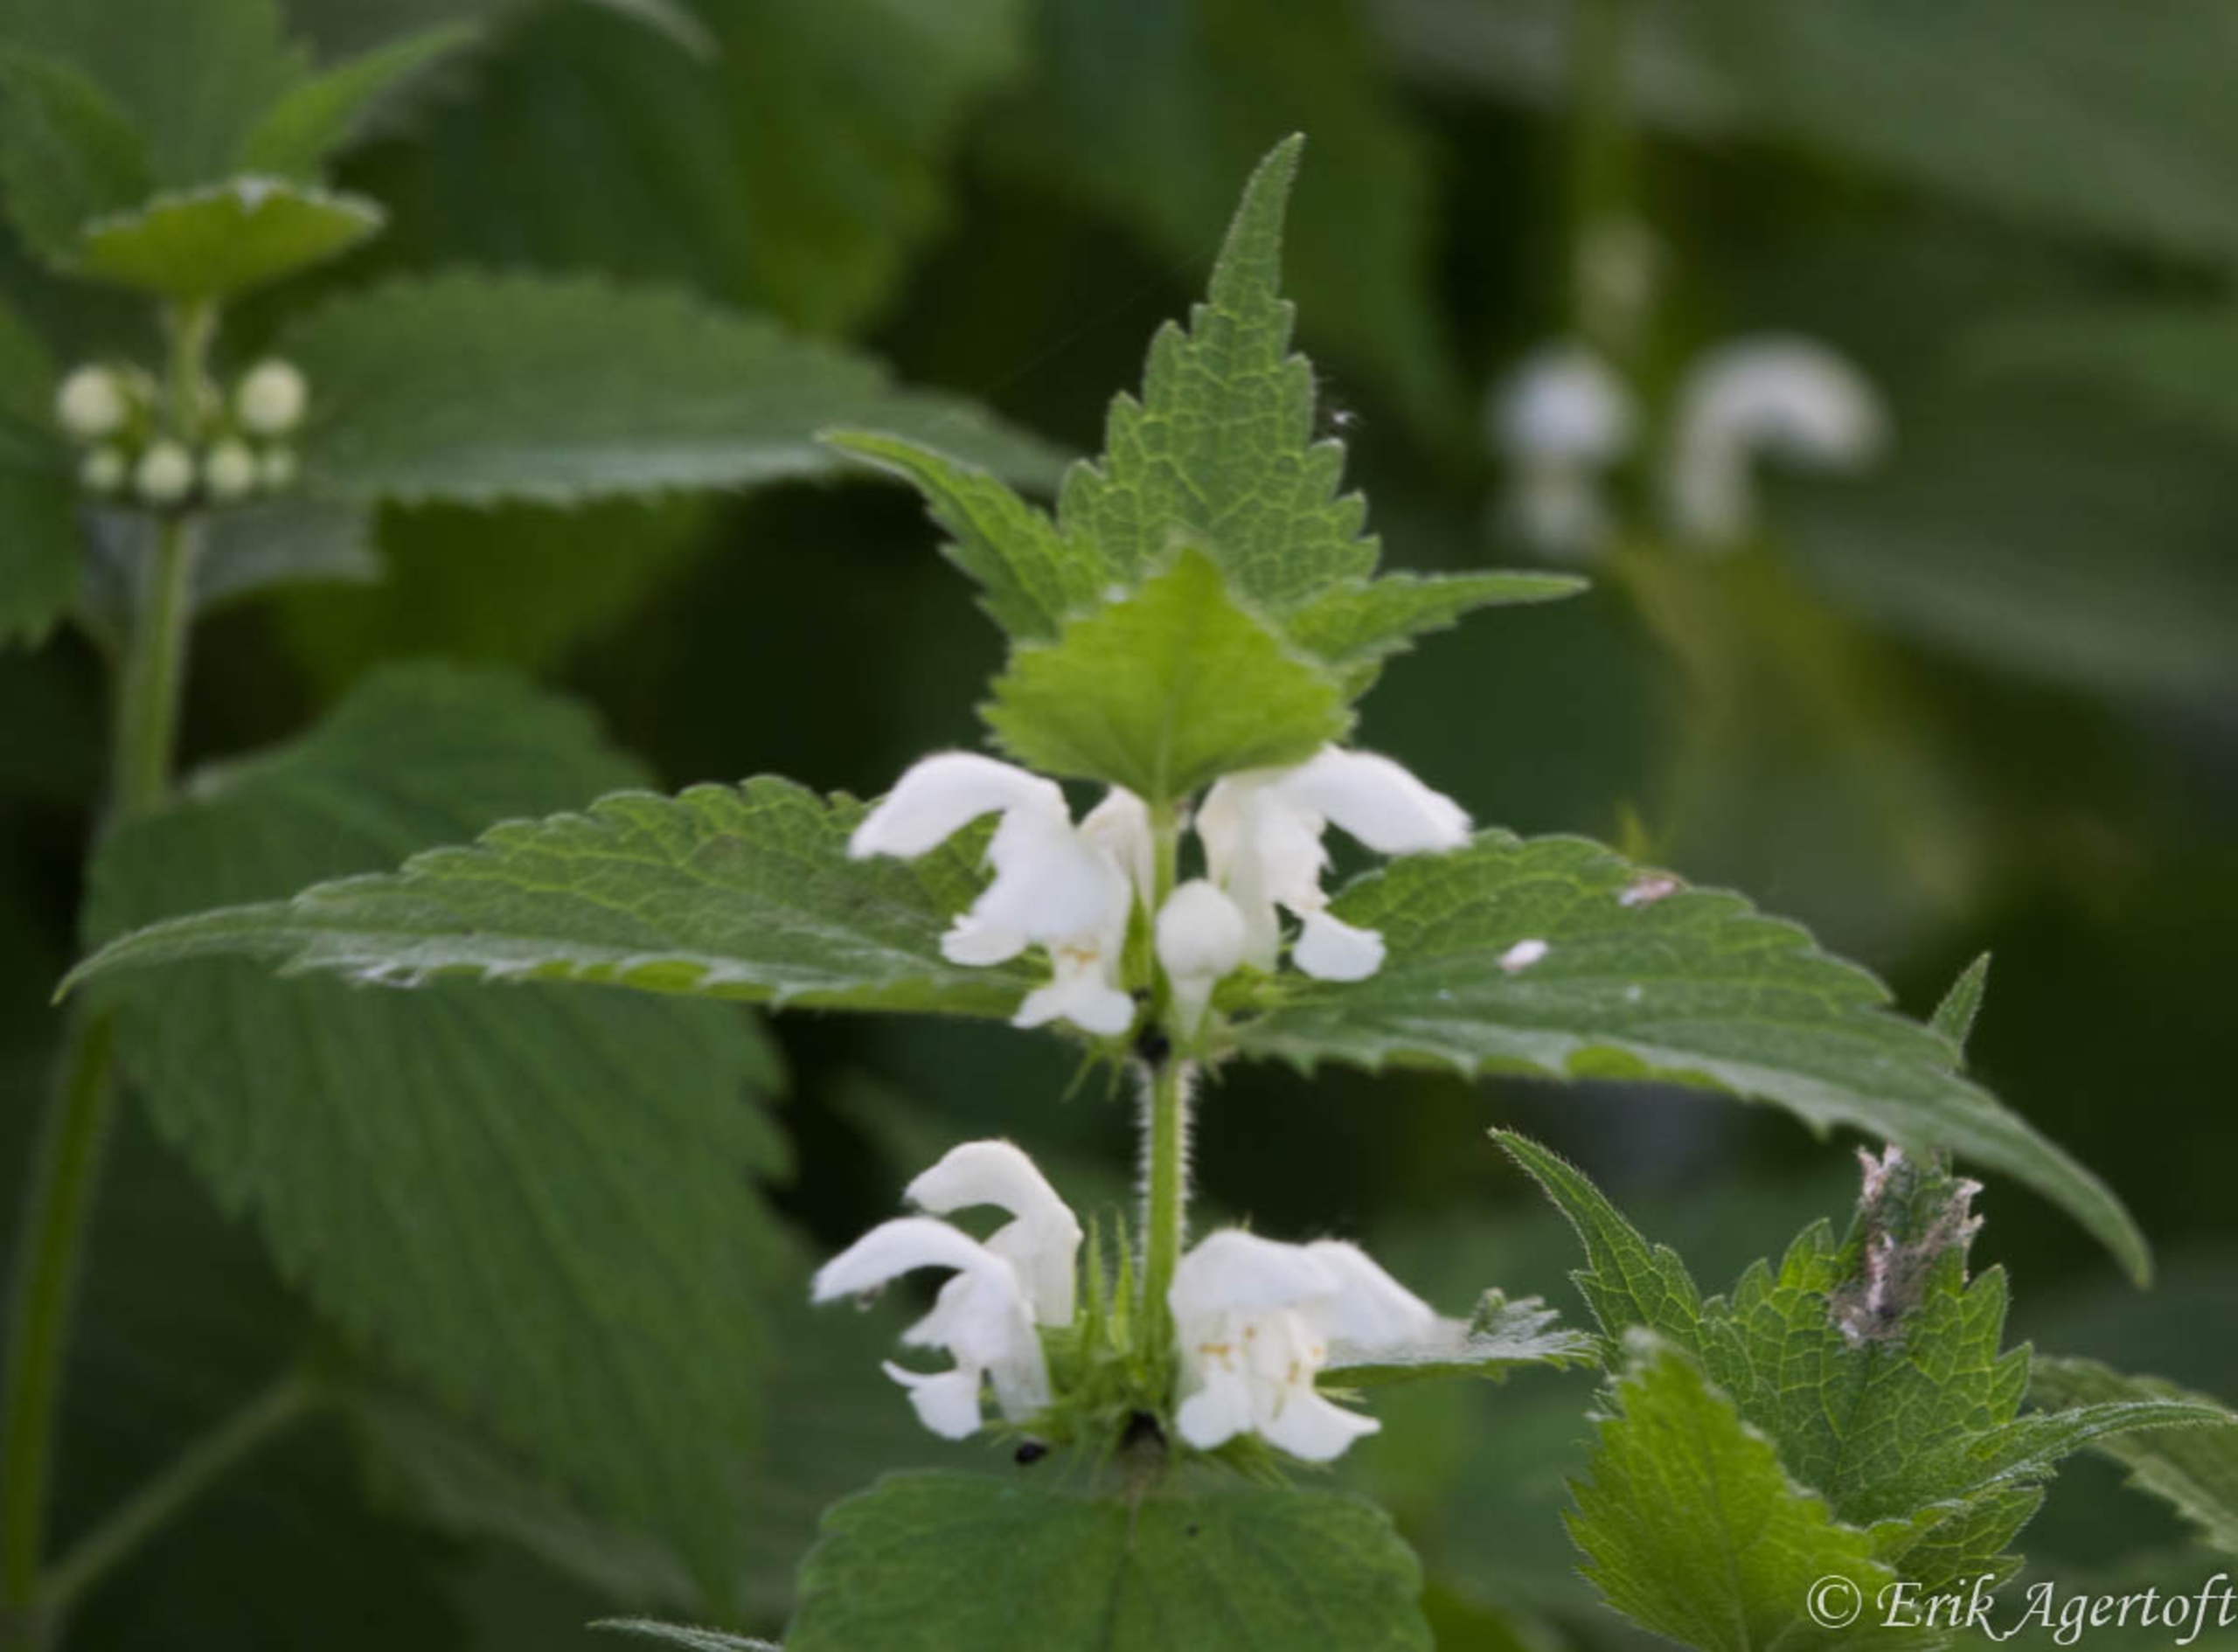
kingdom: Plantae
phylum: Tracheophyta
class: Magnoliopsida
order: Lamiales
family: Lamiaceae
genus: Lamium
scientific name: Lamium album
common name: Døvnælde
